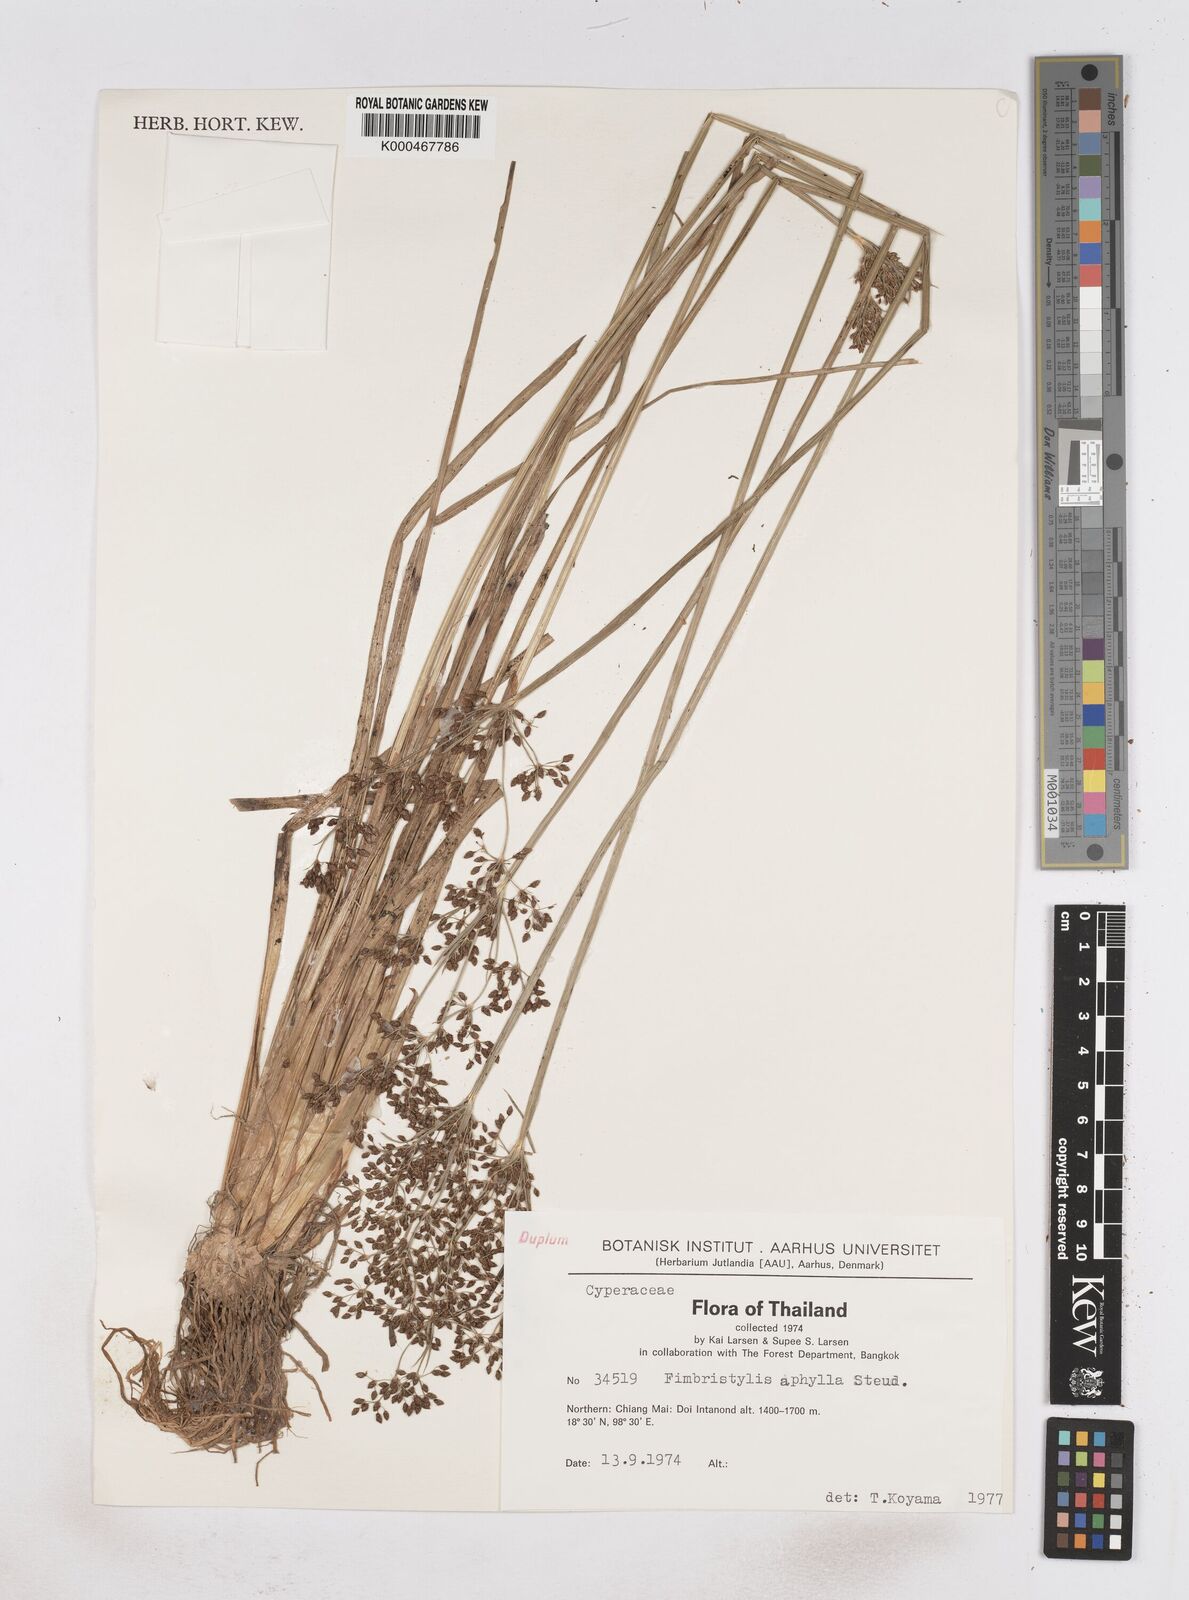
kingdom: Plantae
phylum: Tracheophyta
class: Liliopsida
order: Poales
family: Cyperaceae
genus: Fimbristylis
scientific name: Fimbristylis aphylla
